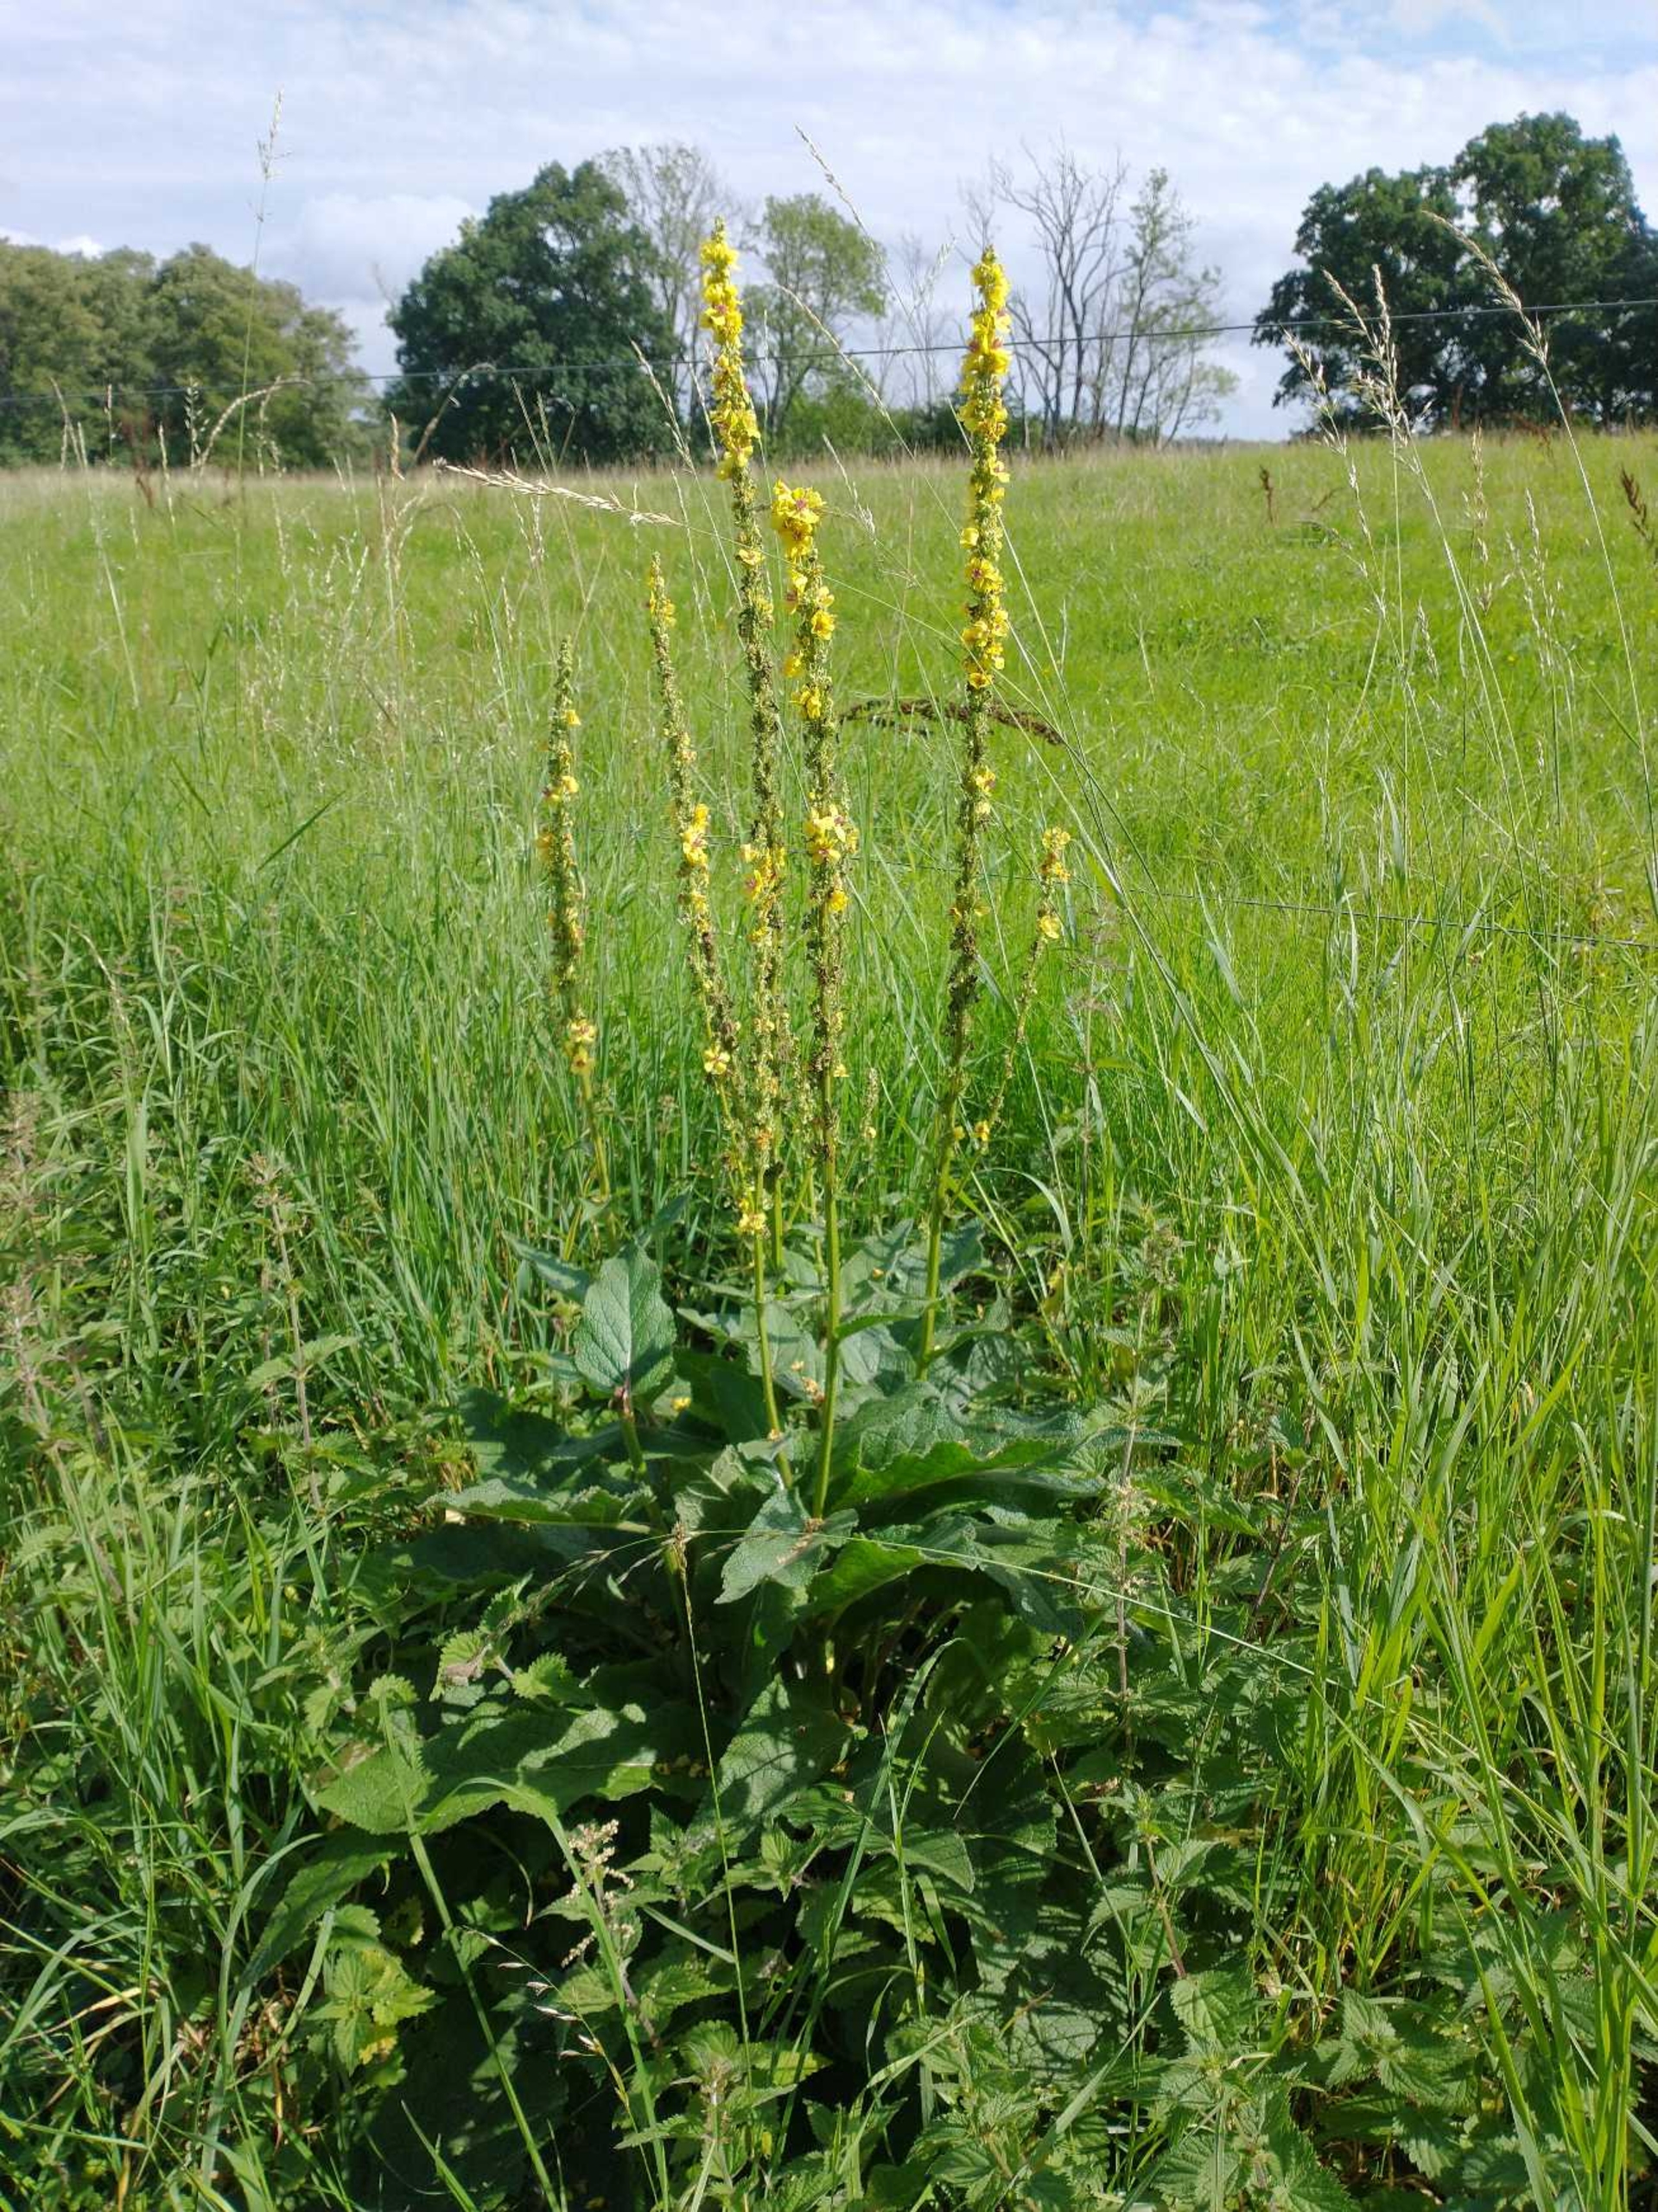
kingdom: Plantae
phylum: Tracheophyta
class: Magnoliopsida
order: Lamiales
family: Scrophulariaceae
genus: Verbascum
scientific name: Verbascum nigrum
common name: Mørk kongelys
